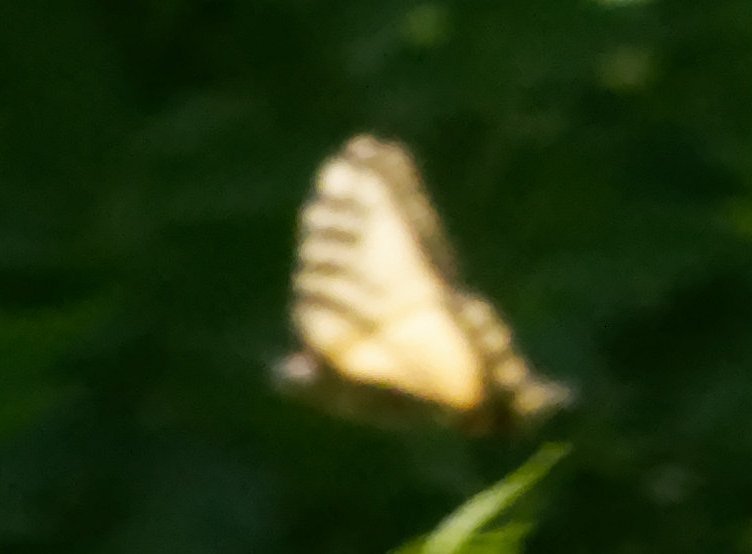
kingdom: Animalia
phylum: Arthropoda
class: Insecta
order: Lepidoptera
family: Papilionidae
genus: Pterourus
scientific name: Pterourus
